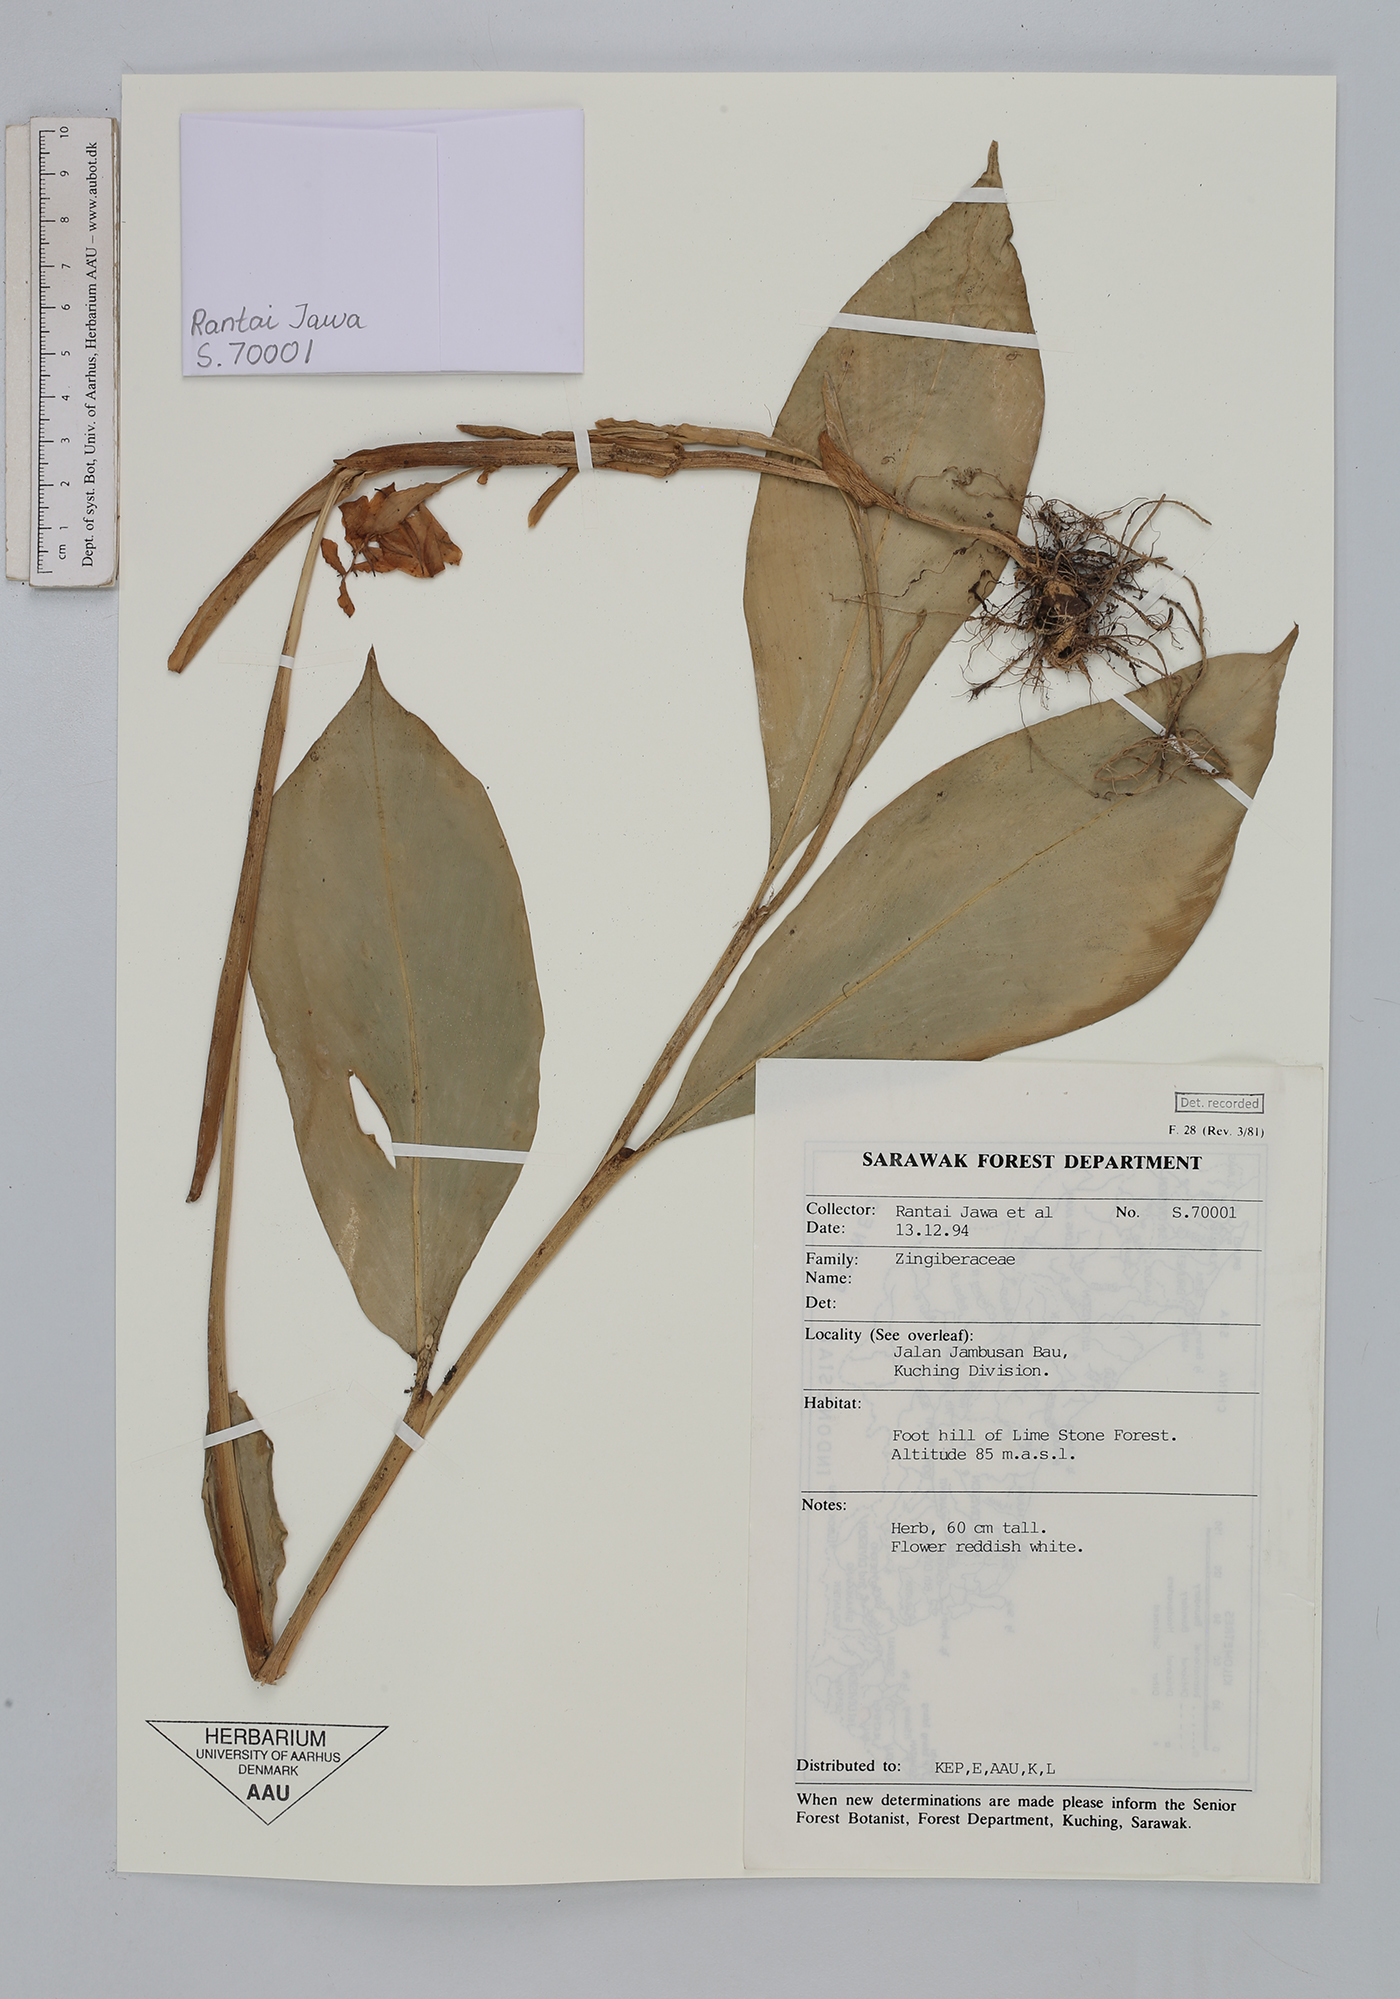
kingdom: Plantae
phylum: Tracheophyta
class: Liliopsida
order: Zingiberales
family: Zingiberaceae
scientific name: Zingiberaceae
